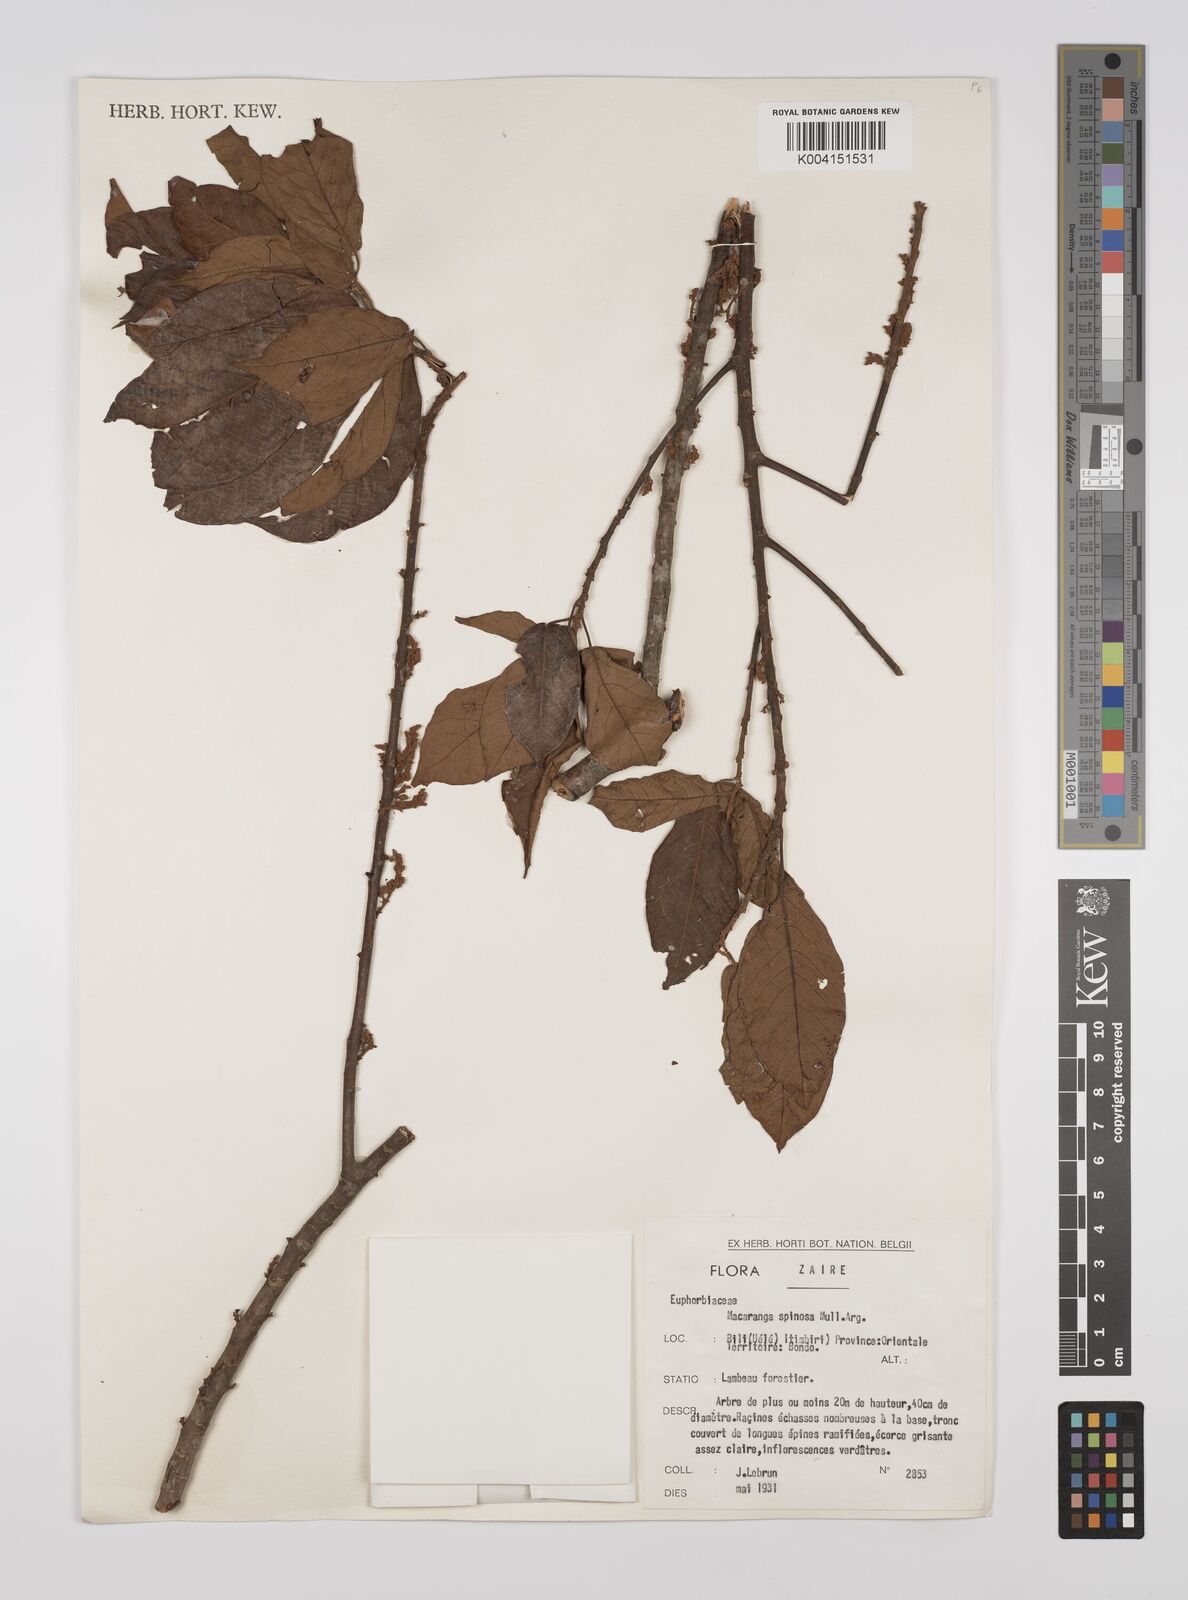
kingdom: Plantae
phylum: Tracheophyta
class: Magnoliopsida
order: Malpighiales
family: Euphorbiaceae
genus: Macaranga
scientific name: Macaranga spinosa
